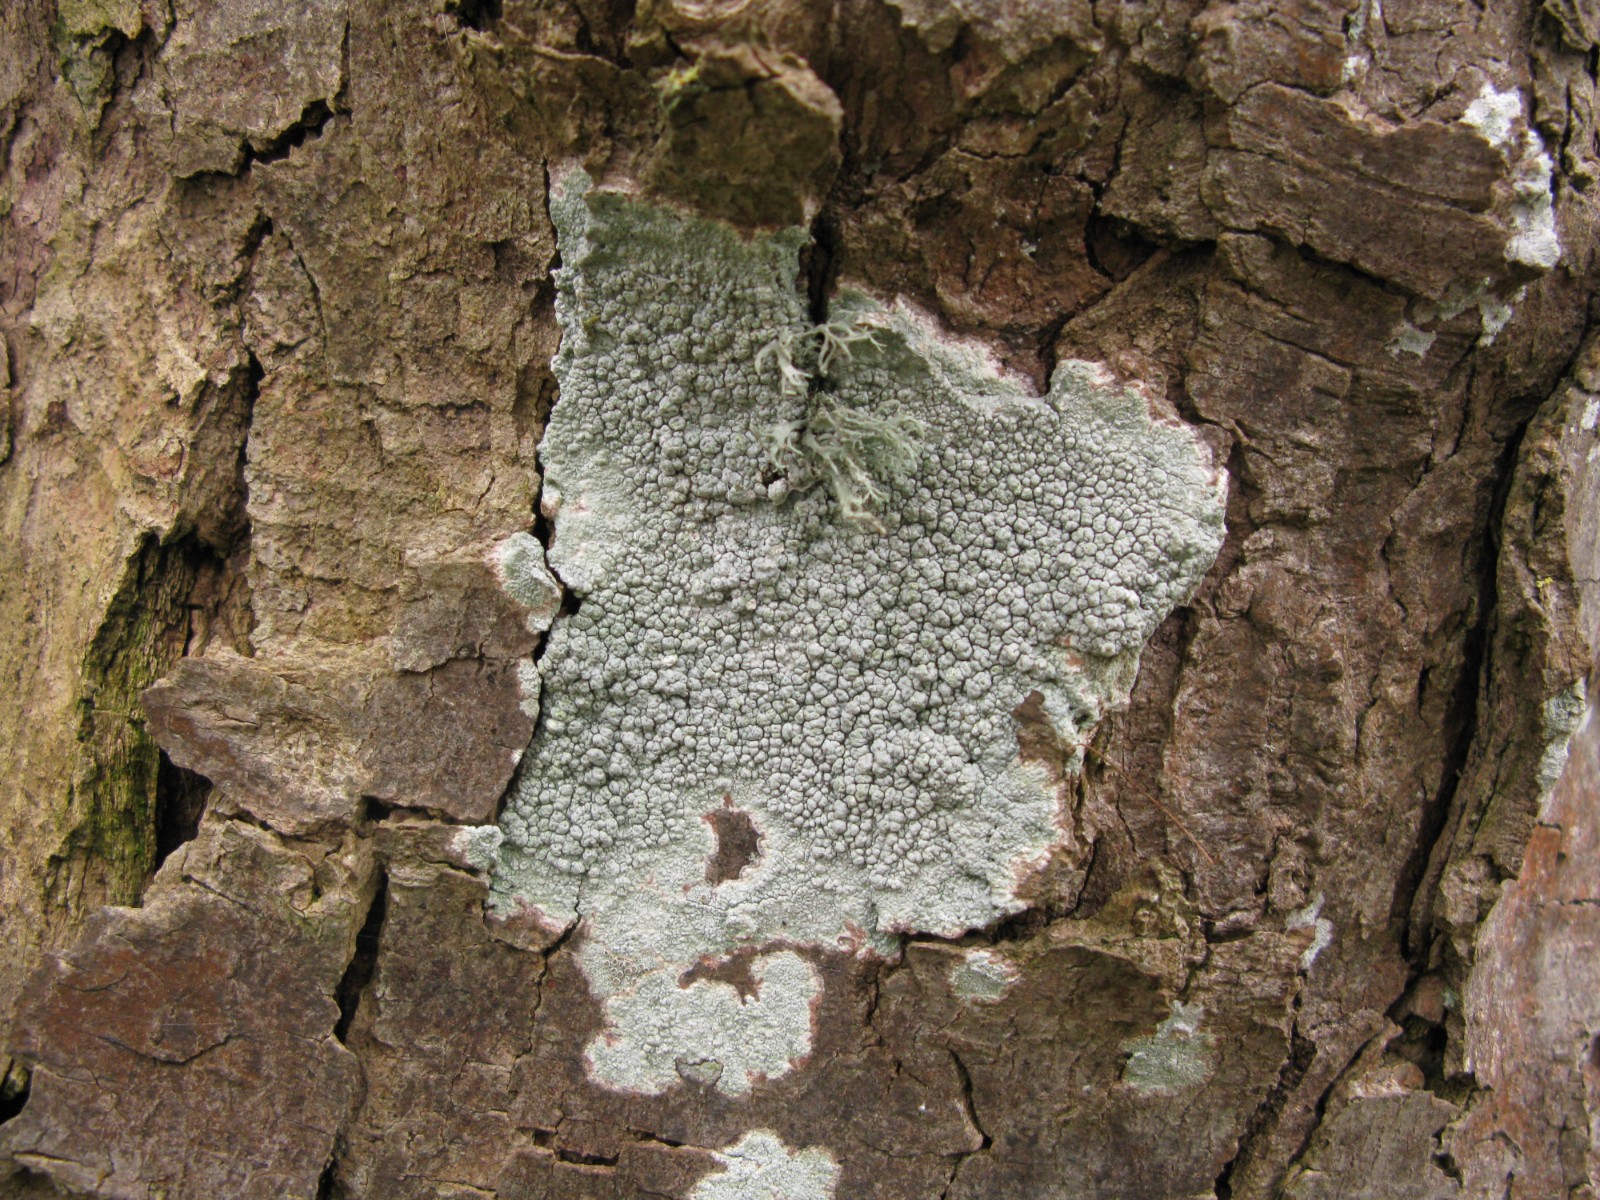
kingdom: Fungi
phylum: Ascomycota
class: Lecanoromycetes
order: Pertusariales
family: Pertusariaceae
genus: Pertusaria
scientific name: Pertusaria pertusa
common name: almindelig prikvortelav
